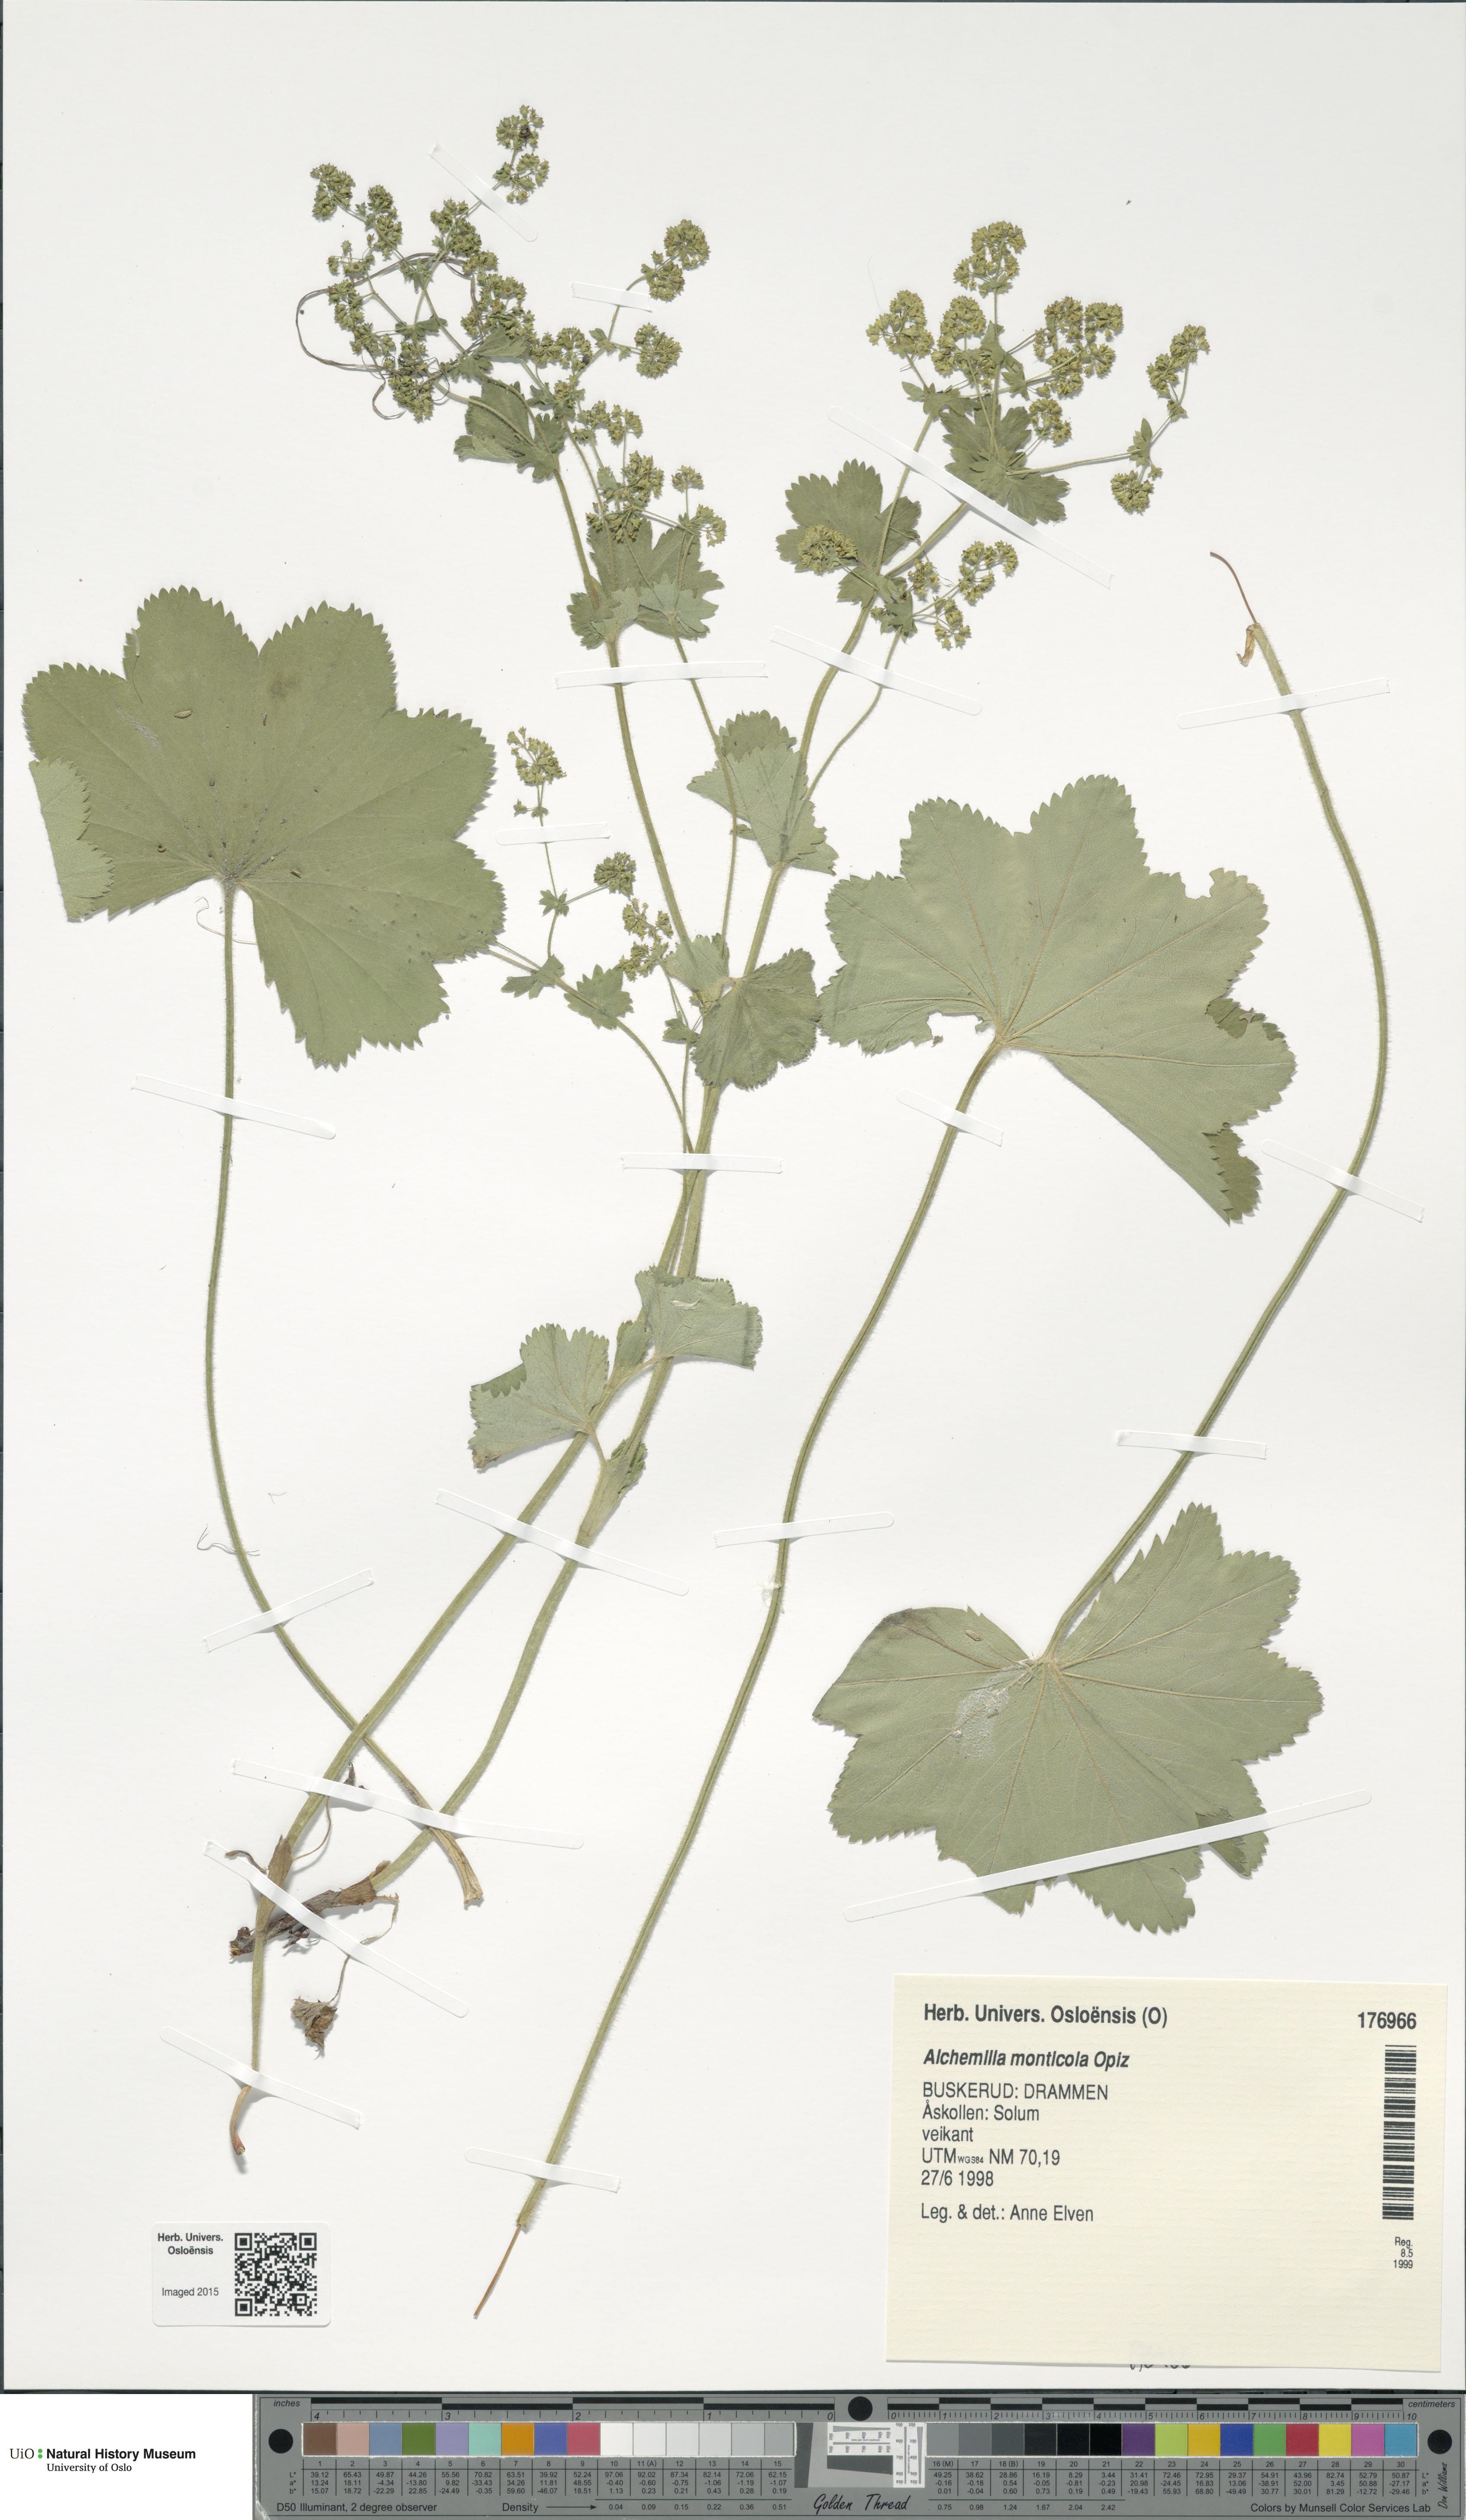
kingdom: Plantae
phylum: Tracheophyta
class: Magnoliopsida
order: Rosales
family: Rosaceae
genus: Alchemilla
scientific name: Alchemilla monticola
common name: Hairy lady's mantle
